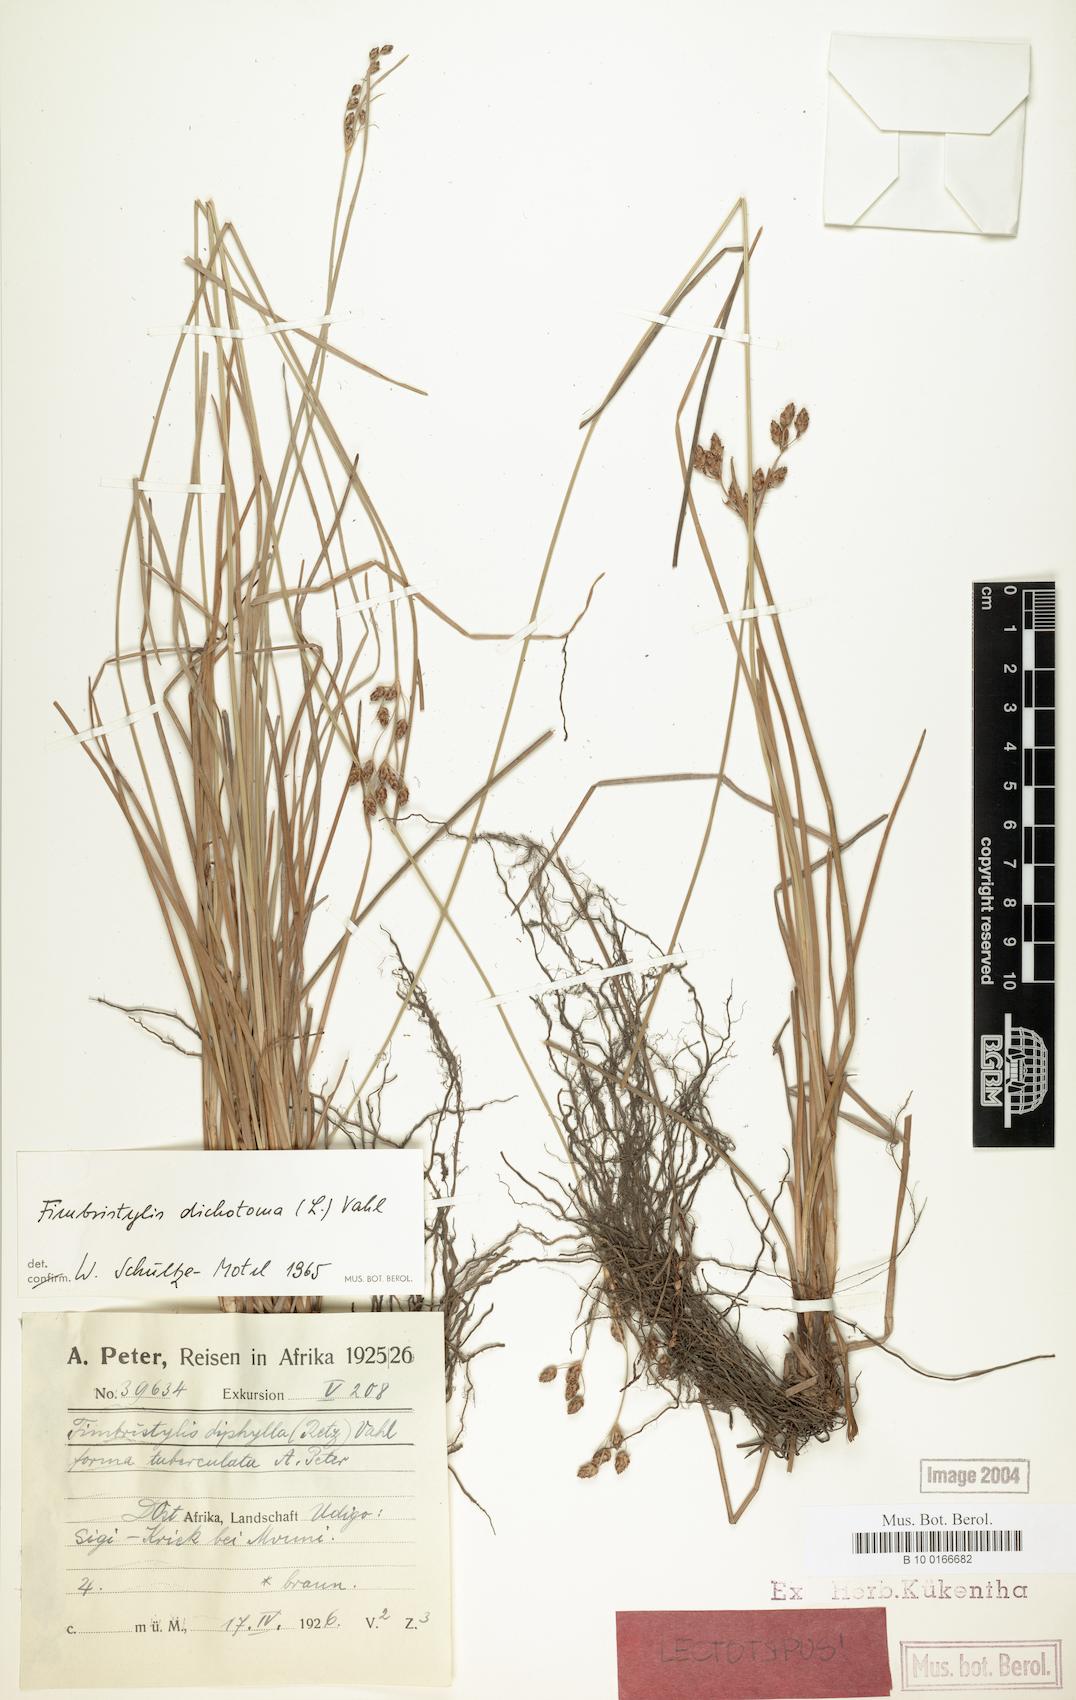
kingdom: Plantae
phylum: Tracheophyta
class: Liliopsida
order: Poales
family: Cyperaceae
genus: Fimbristylis
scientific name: Fimbristylis dichotoma
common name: Forked fimbry
